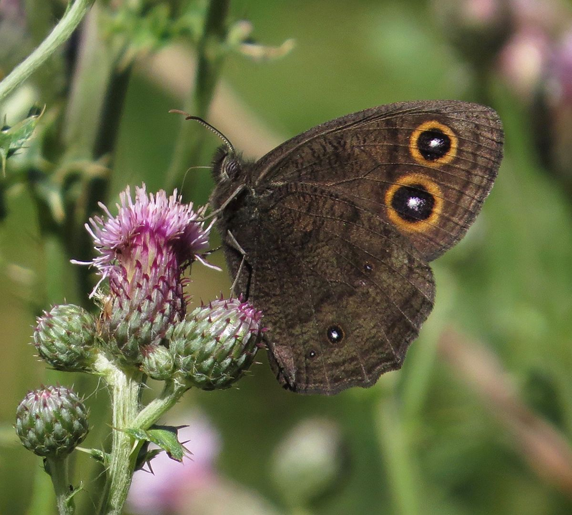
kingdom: Animalia
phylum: Arthropoda
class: Insecta
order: Lepidoptera
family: Nymphalidae
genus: Cercyonis
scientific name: Cercyonis pegala
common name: Common Wood-Nymph
